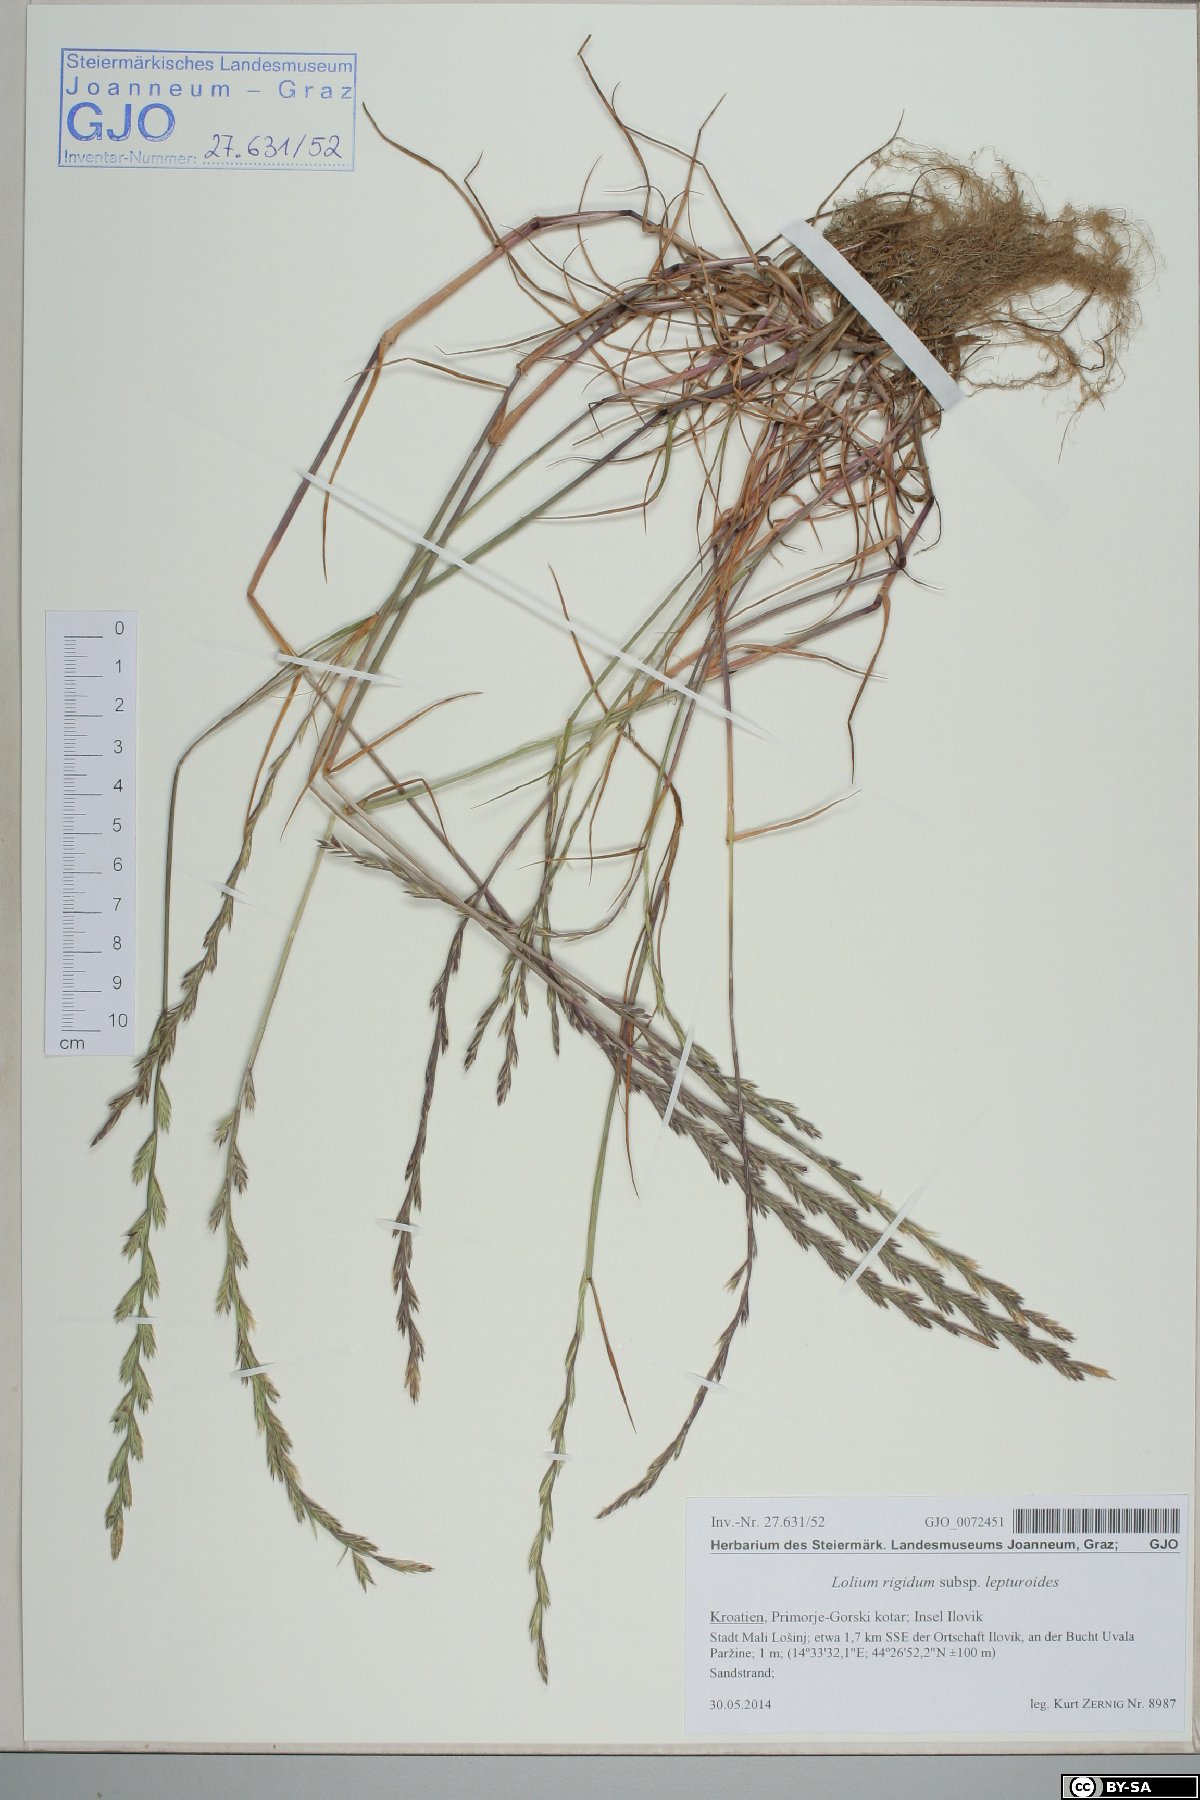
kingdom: Plantae
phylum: Tracheophyta
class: Liliopsida
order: Poales
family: Poaceae
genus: Lolium
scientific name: Lolium rigidum
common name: Wimmera ryegrass
